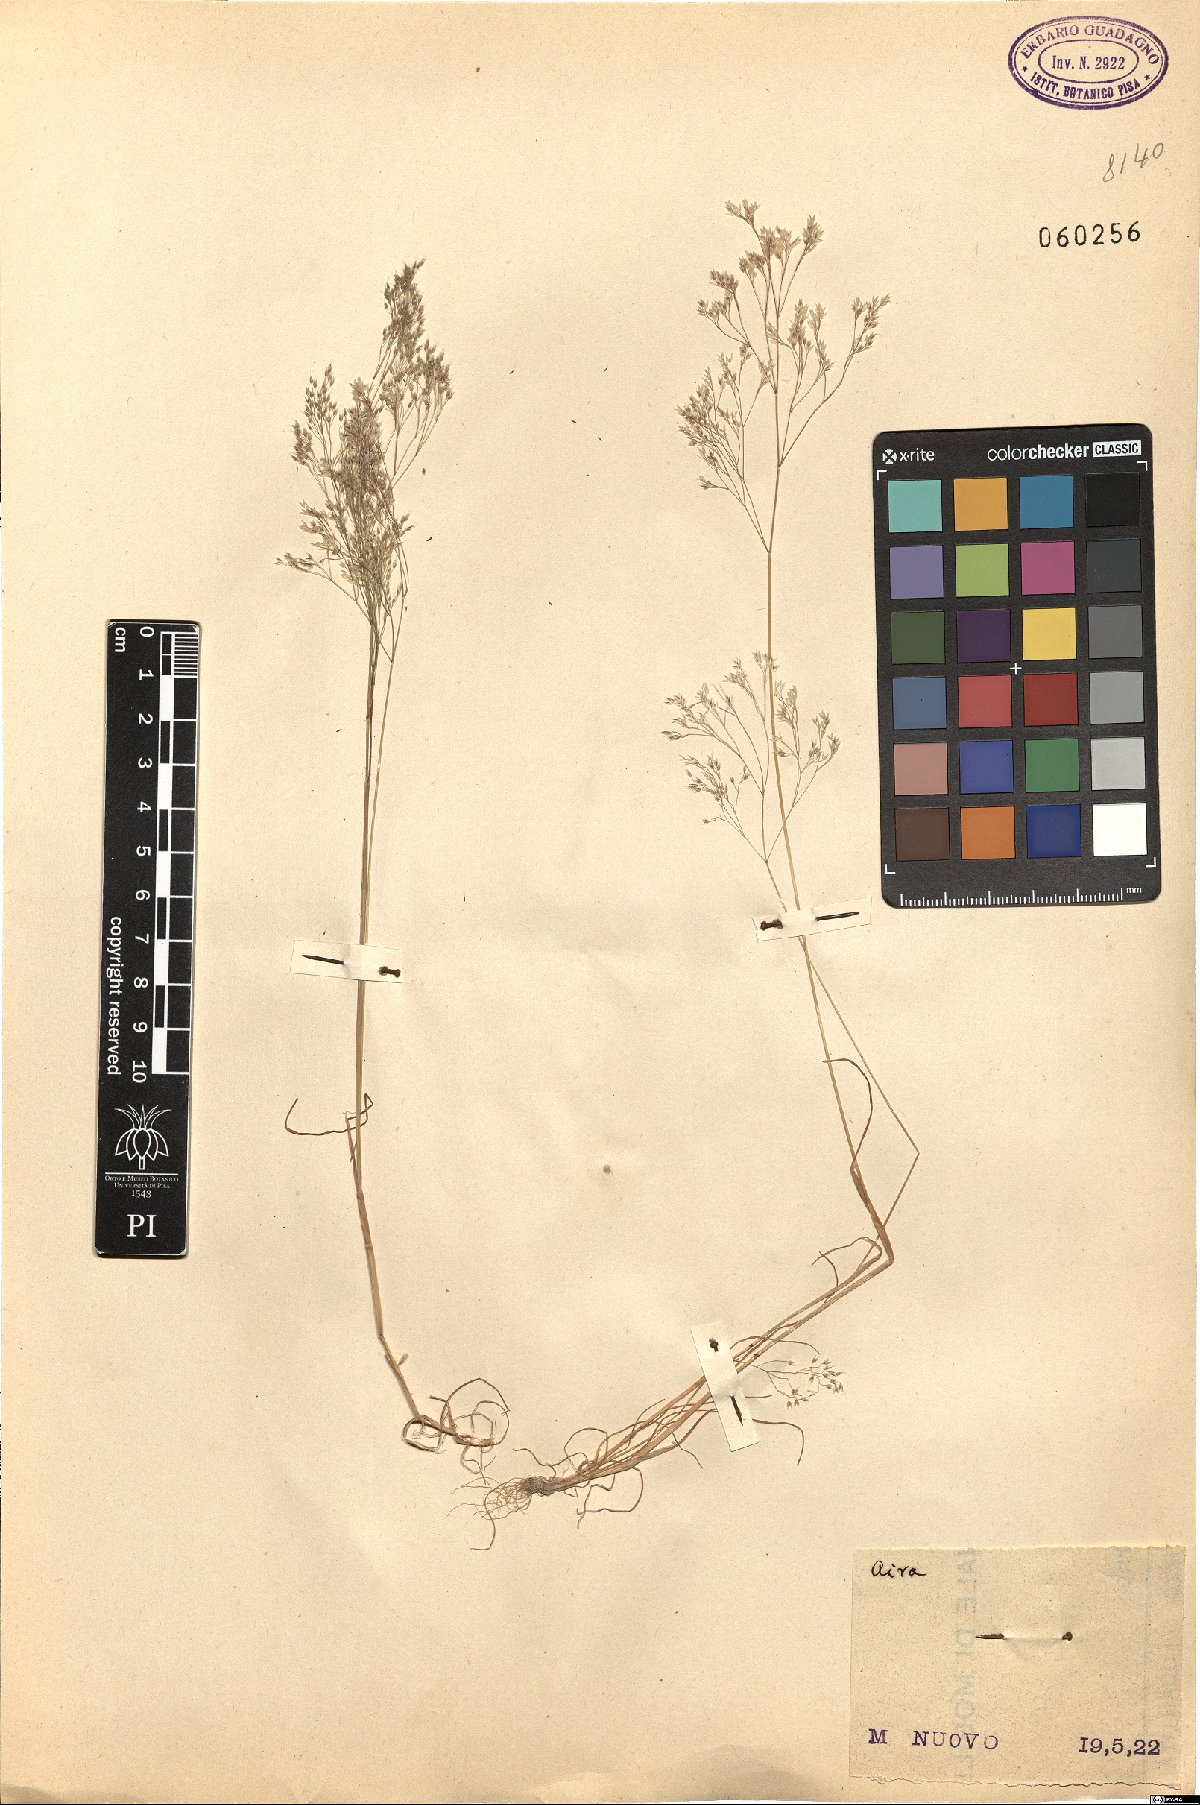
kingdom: Plantae
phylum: Tracheophyta
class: Liliopsida
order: Poales
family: Poaceae
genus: Aira
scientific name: Aira
